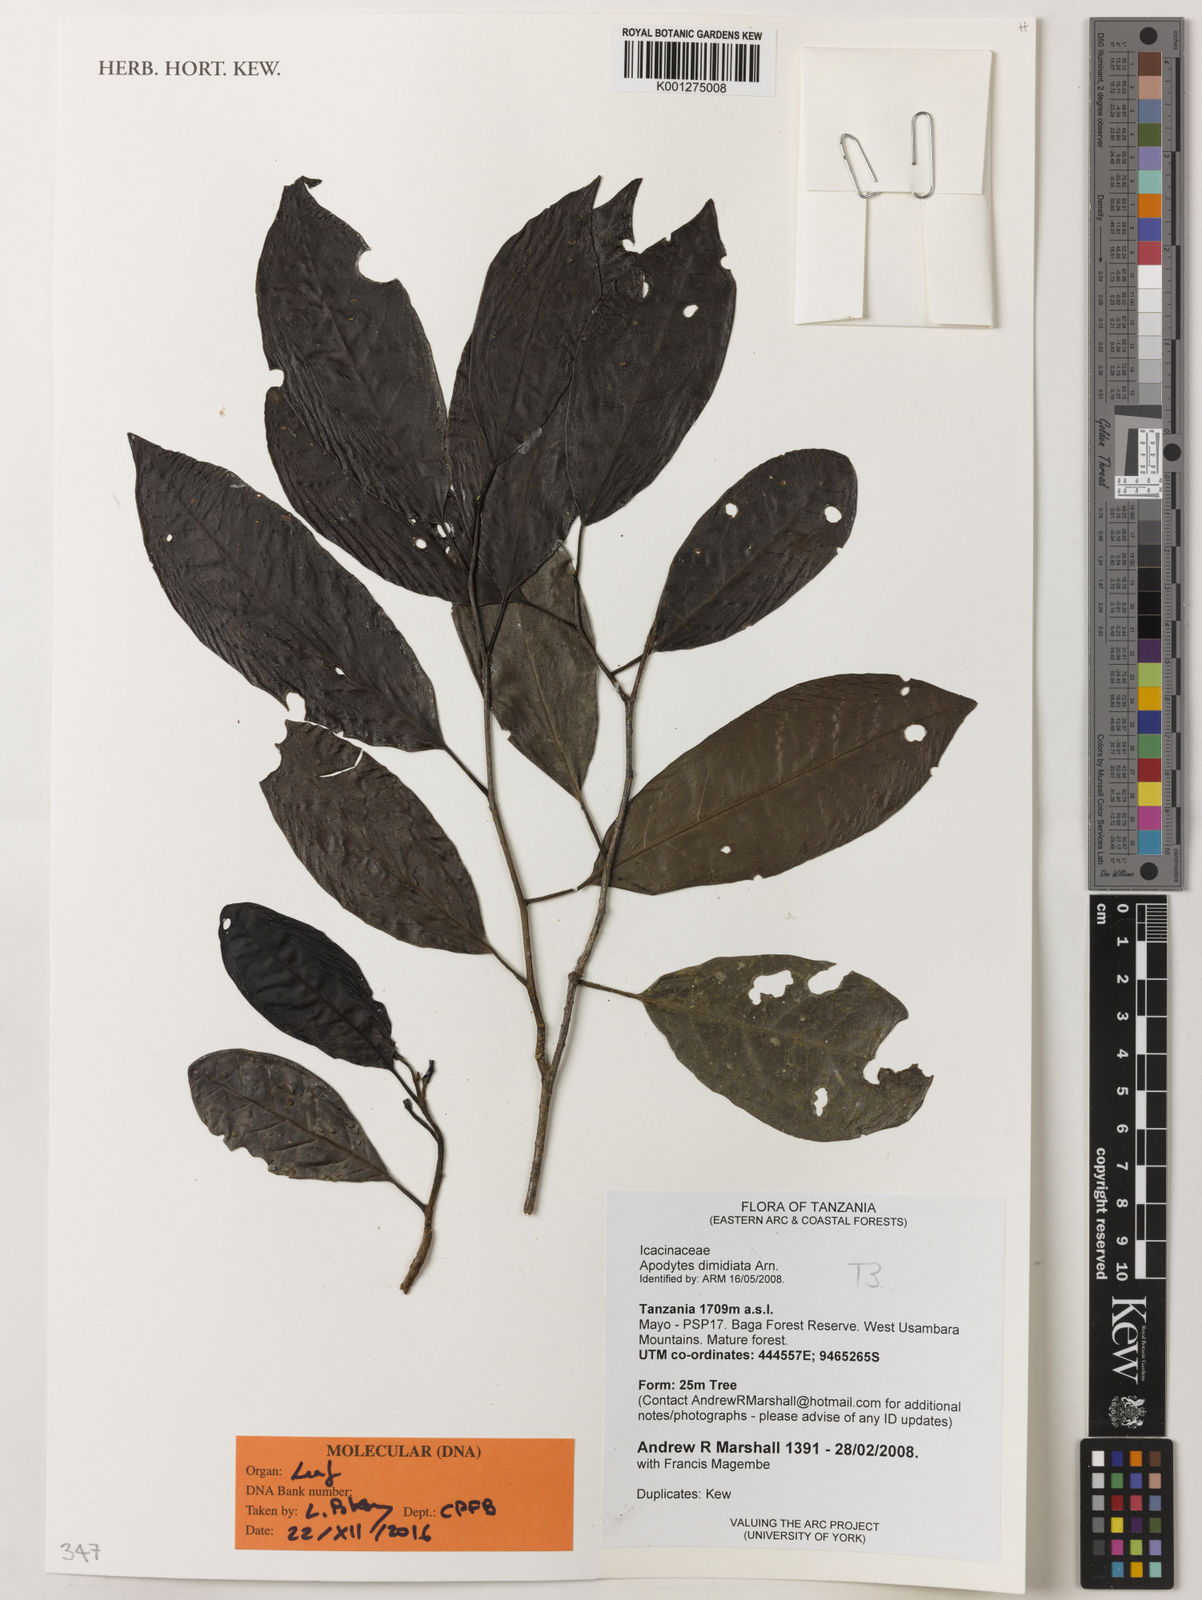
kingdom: Plantae
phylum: Tracheophyta
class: Magnoliopsida
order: Metteniusales
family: Metteniusaceae
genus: Apodytes
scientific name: Apodytes dimidiata
